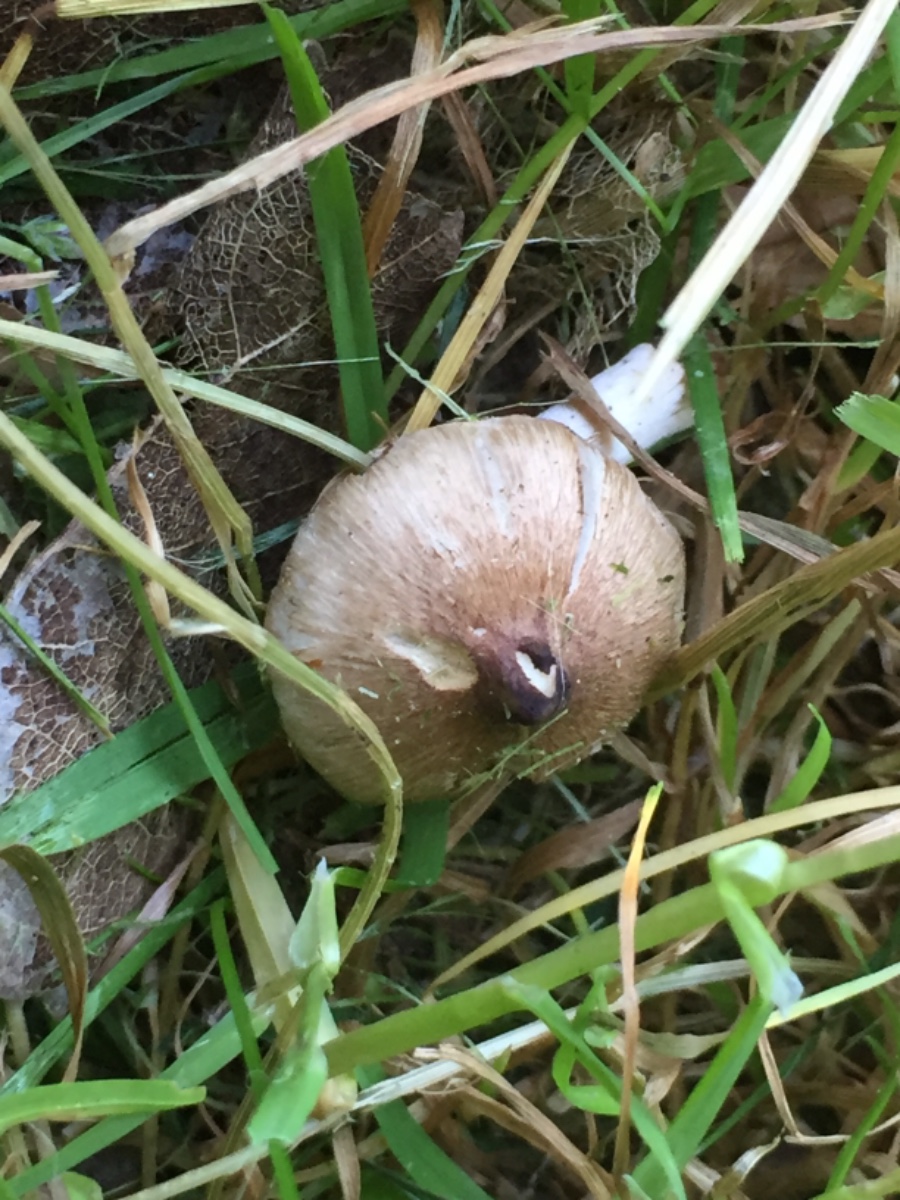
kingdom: Fungi
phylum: Basidiomycota
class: Agaricomycetes
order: Agaricales
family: Inocybaceae
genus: Inocybe
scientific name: Inocybe curvipes
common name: plæne-trævlhat
